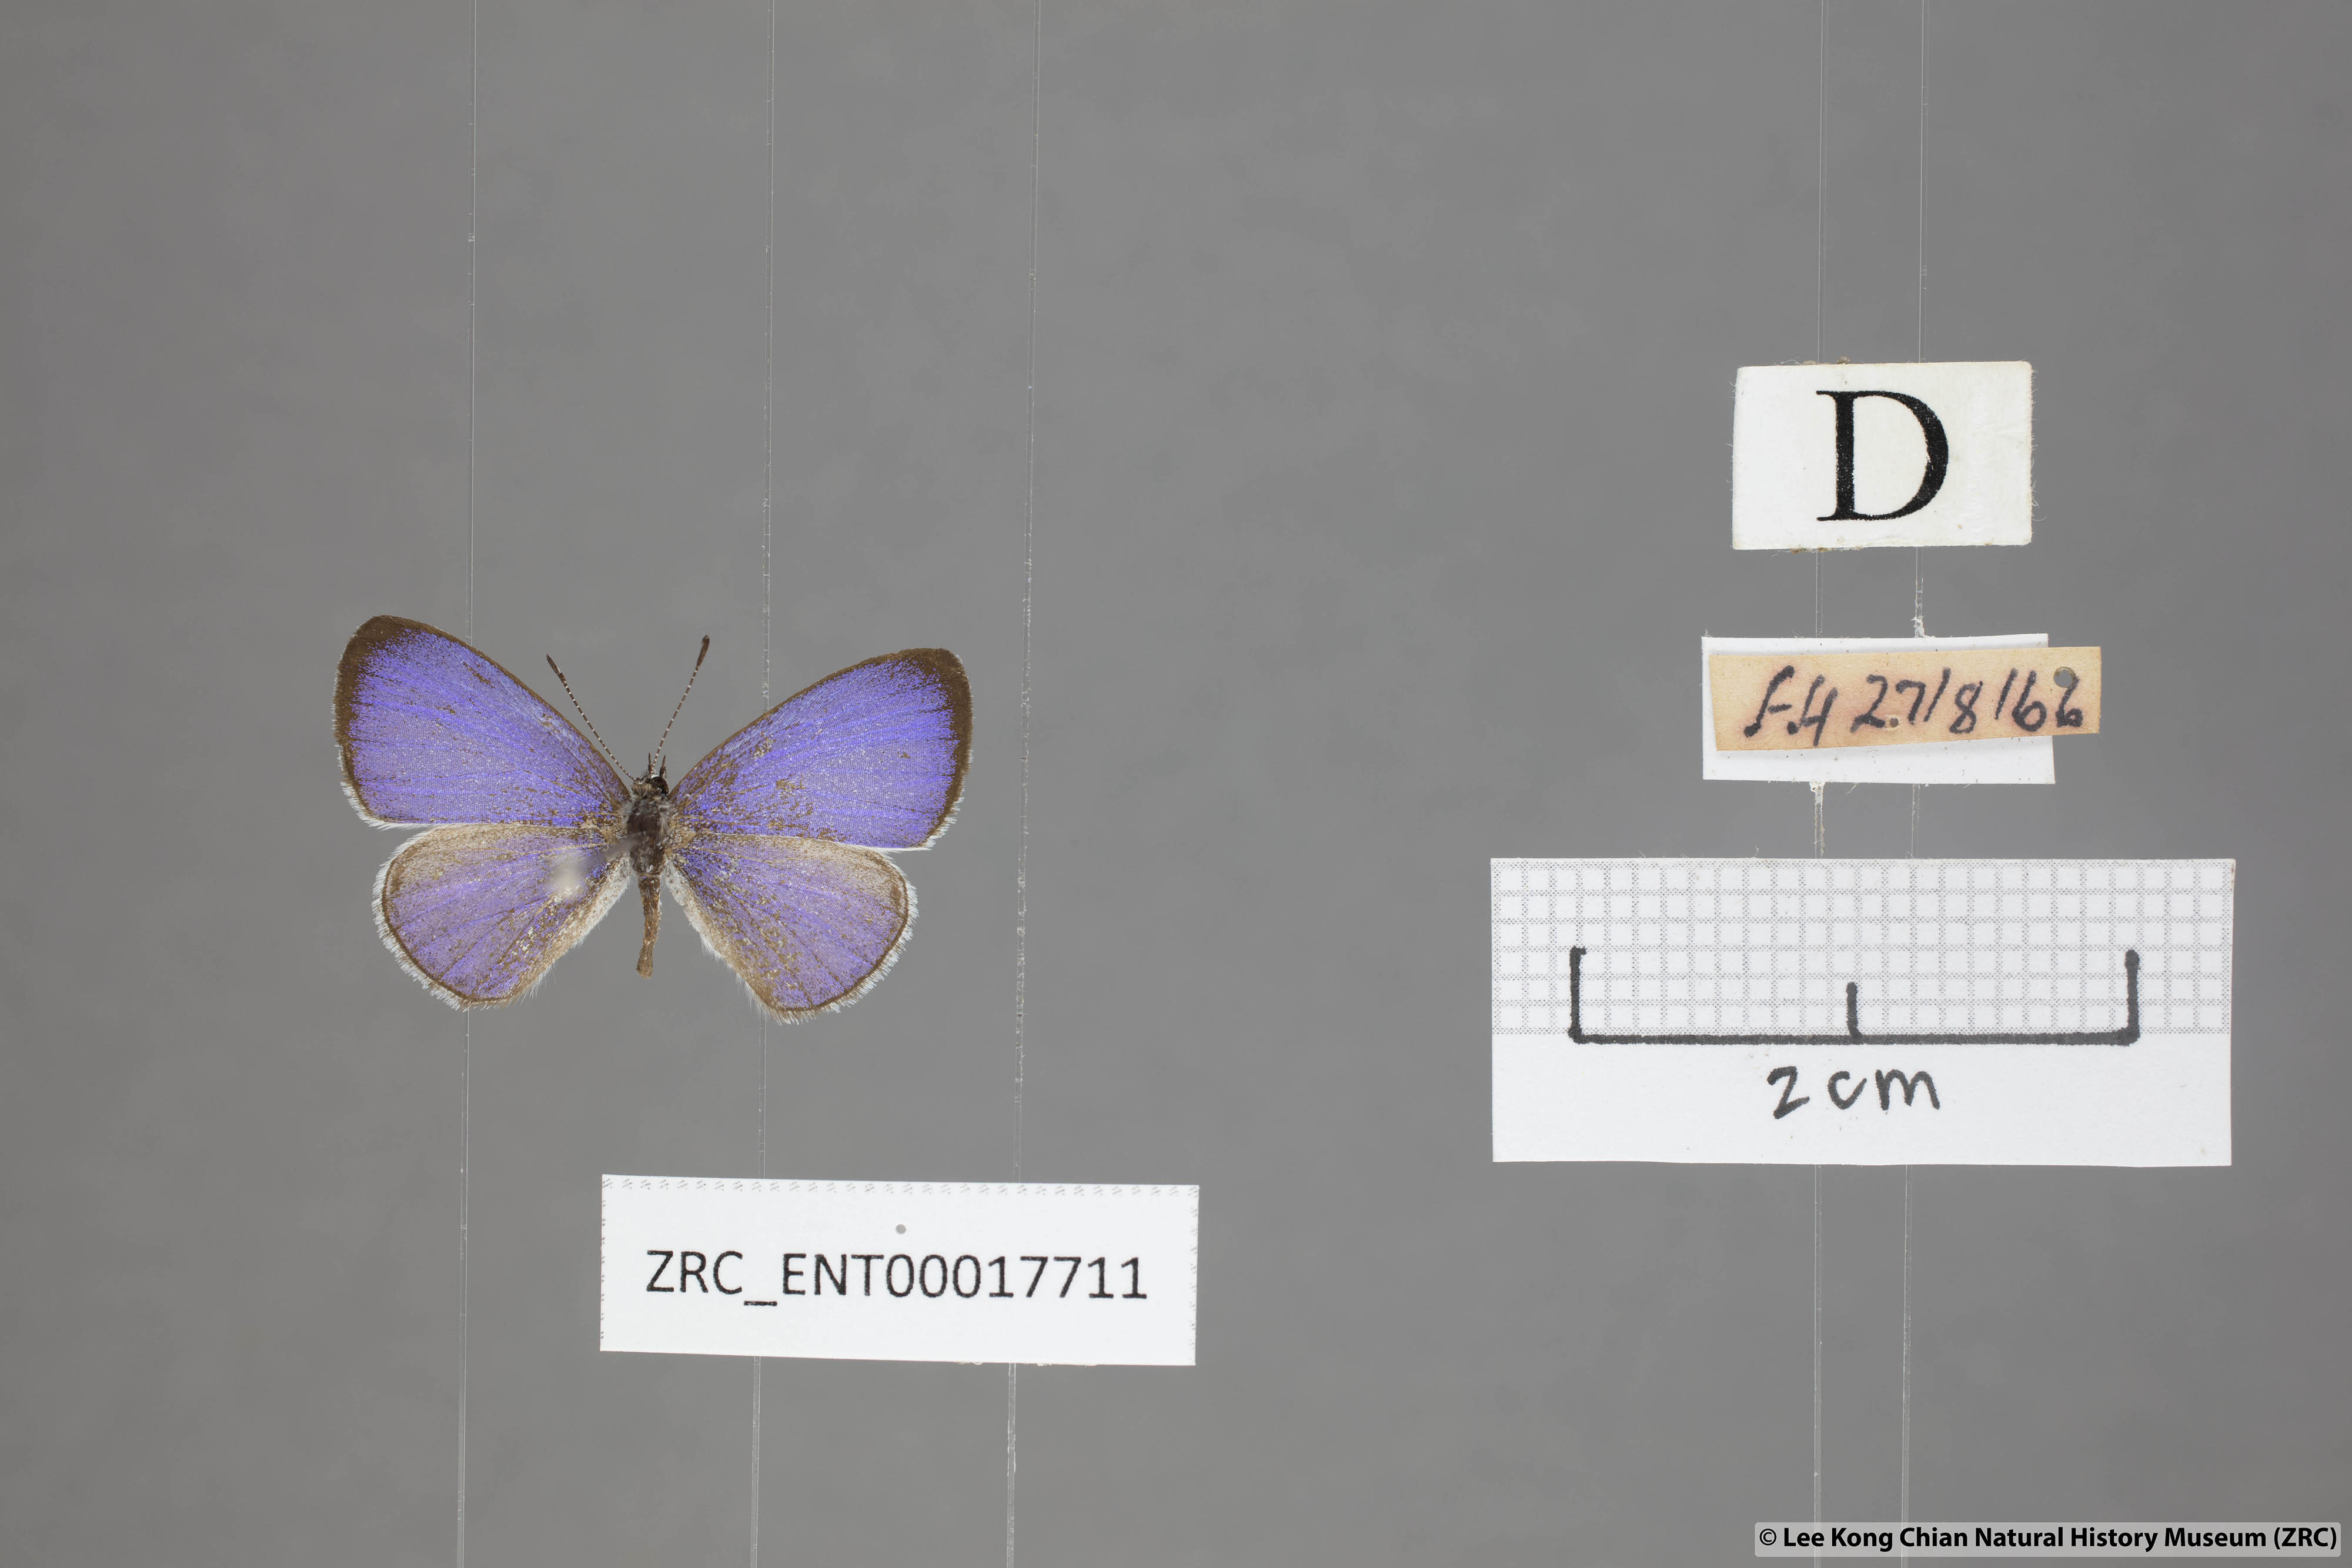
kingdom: Animalia
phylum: Arthropoda
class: Insecta
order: Lepidoptera
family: Lycaenidae
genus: Udara
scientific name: Udara
